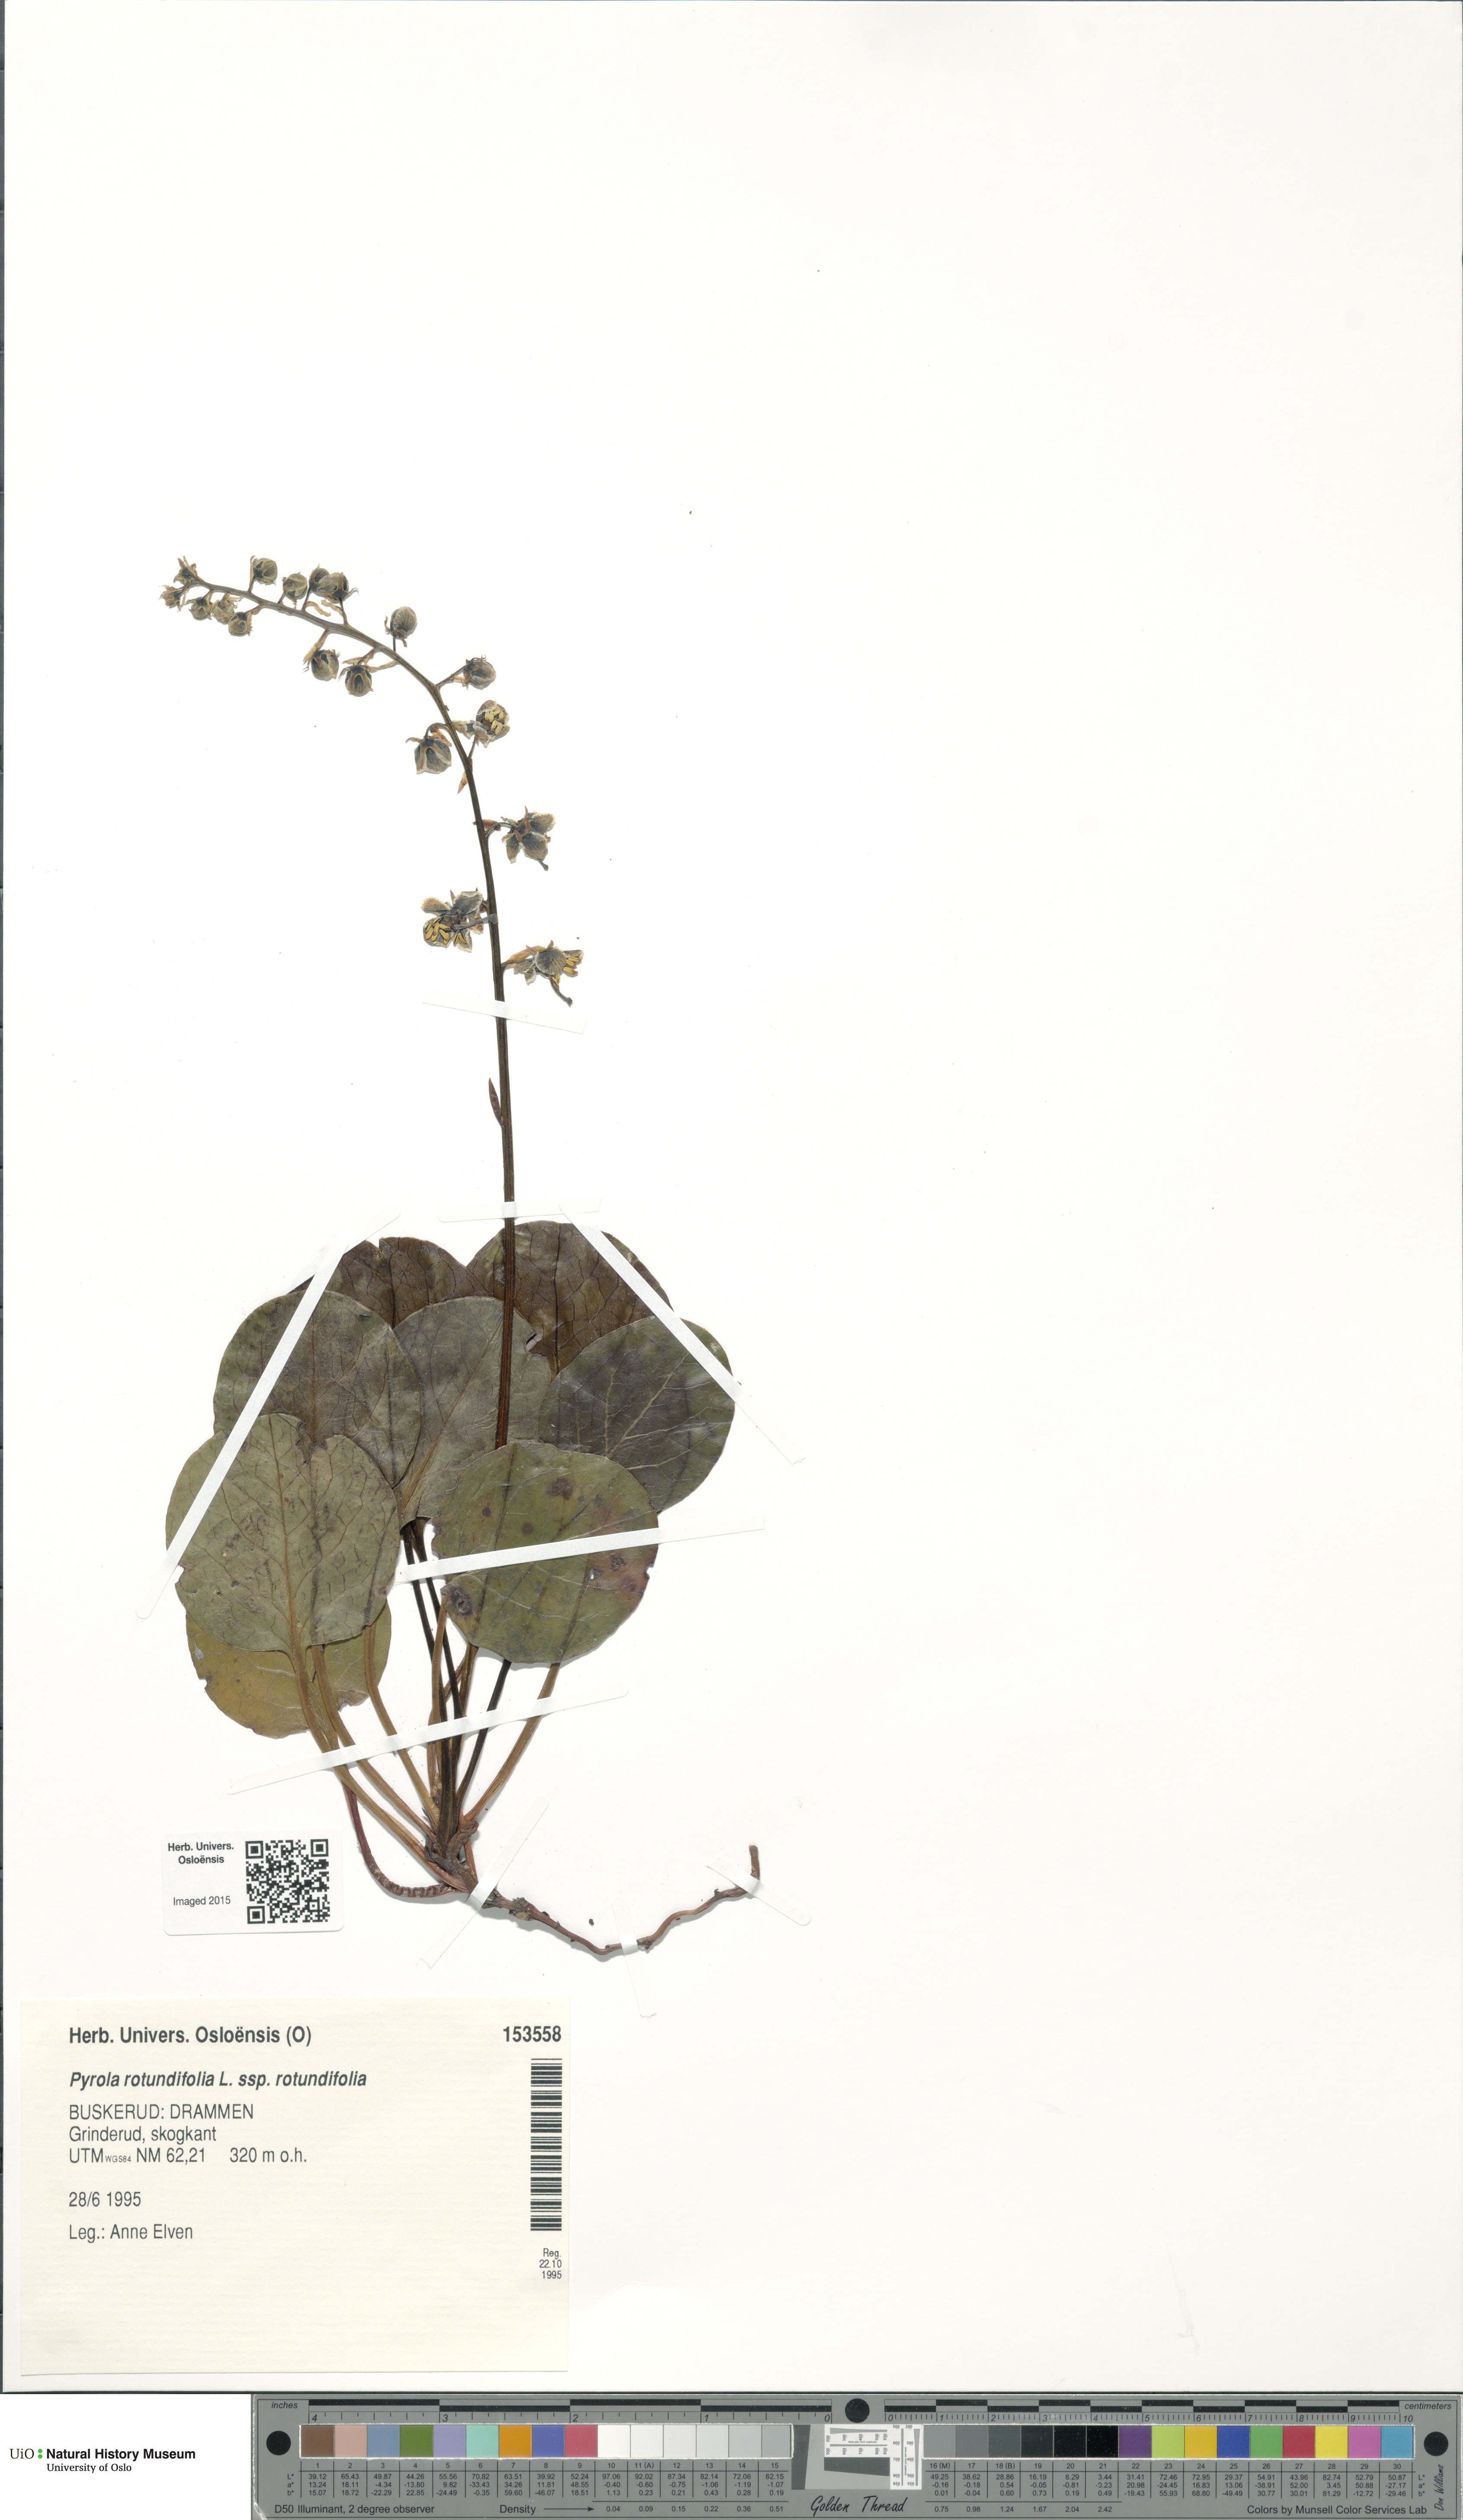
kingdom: Plantae
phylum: Tracheophyta
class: Magnoliopsida
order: Ericales
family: Ericaceae
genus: Pyrola
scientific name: Pyrola rotundifolia
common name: Round-leaved wintergreen
